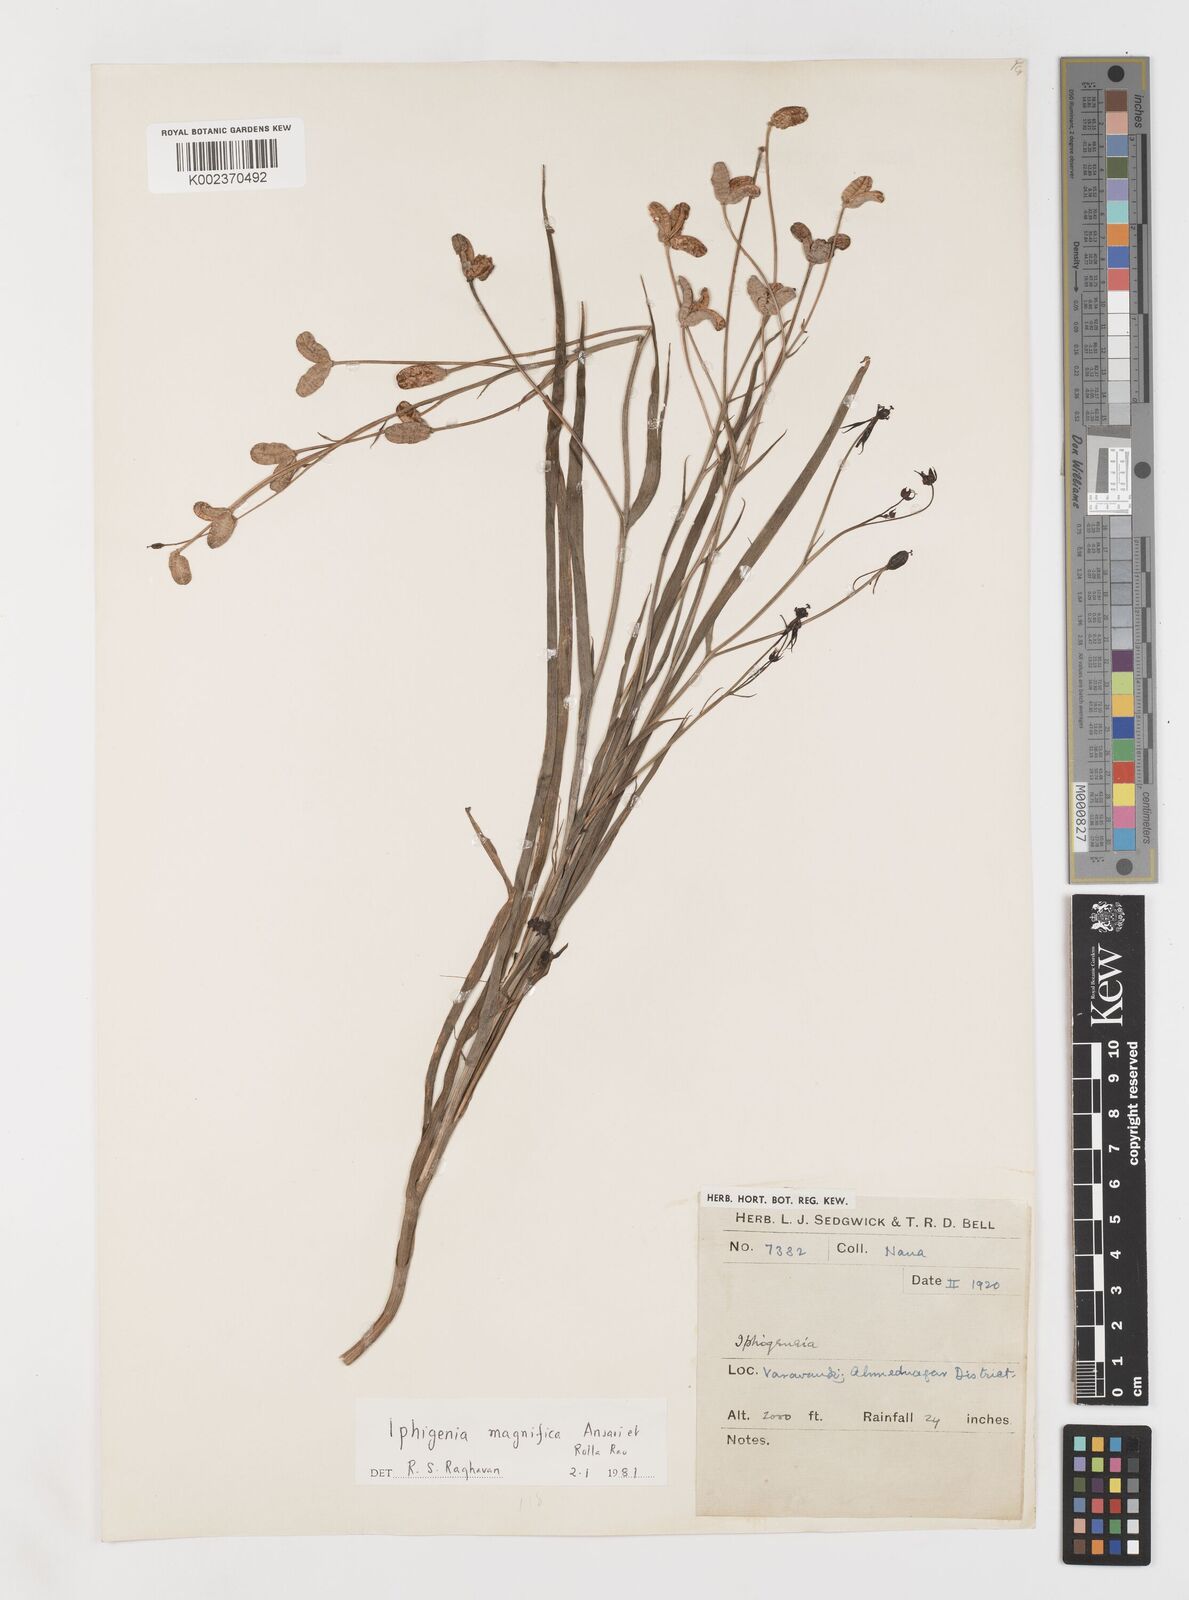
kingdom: Plantae
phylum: Tracheophyta
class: Liliopsida
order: Liliales
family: Colchicaceae
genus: Iphigenia
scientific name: Iphigenia magnifica
